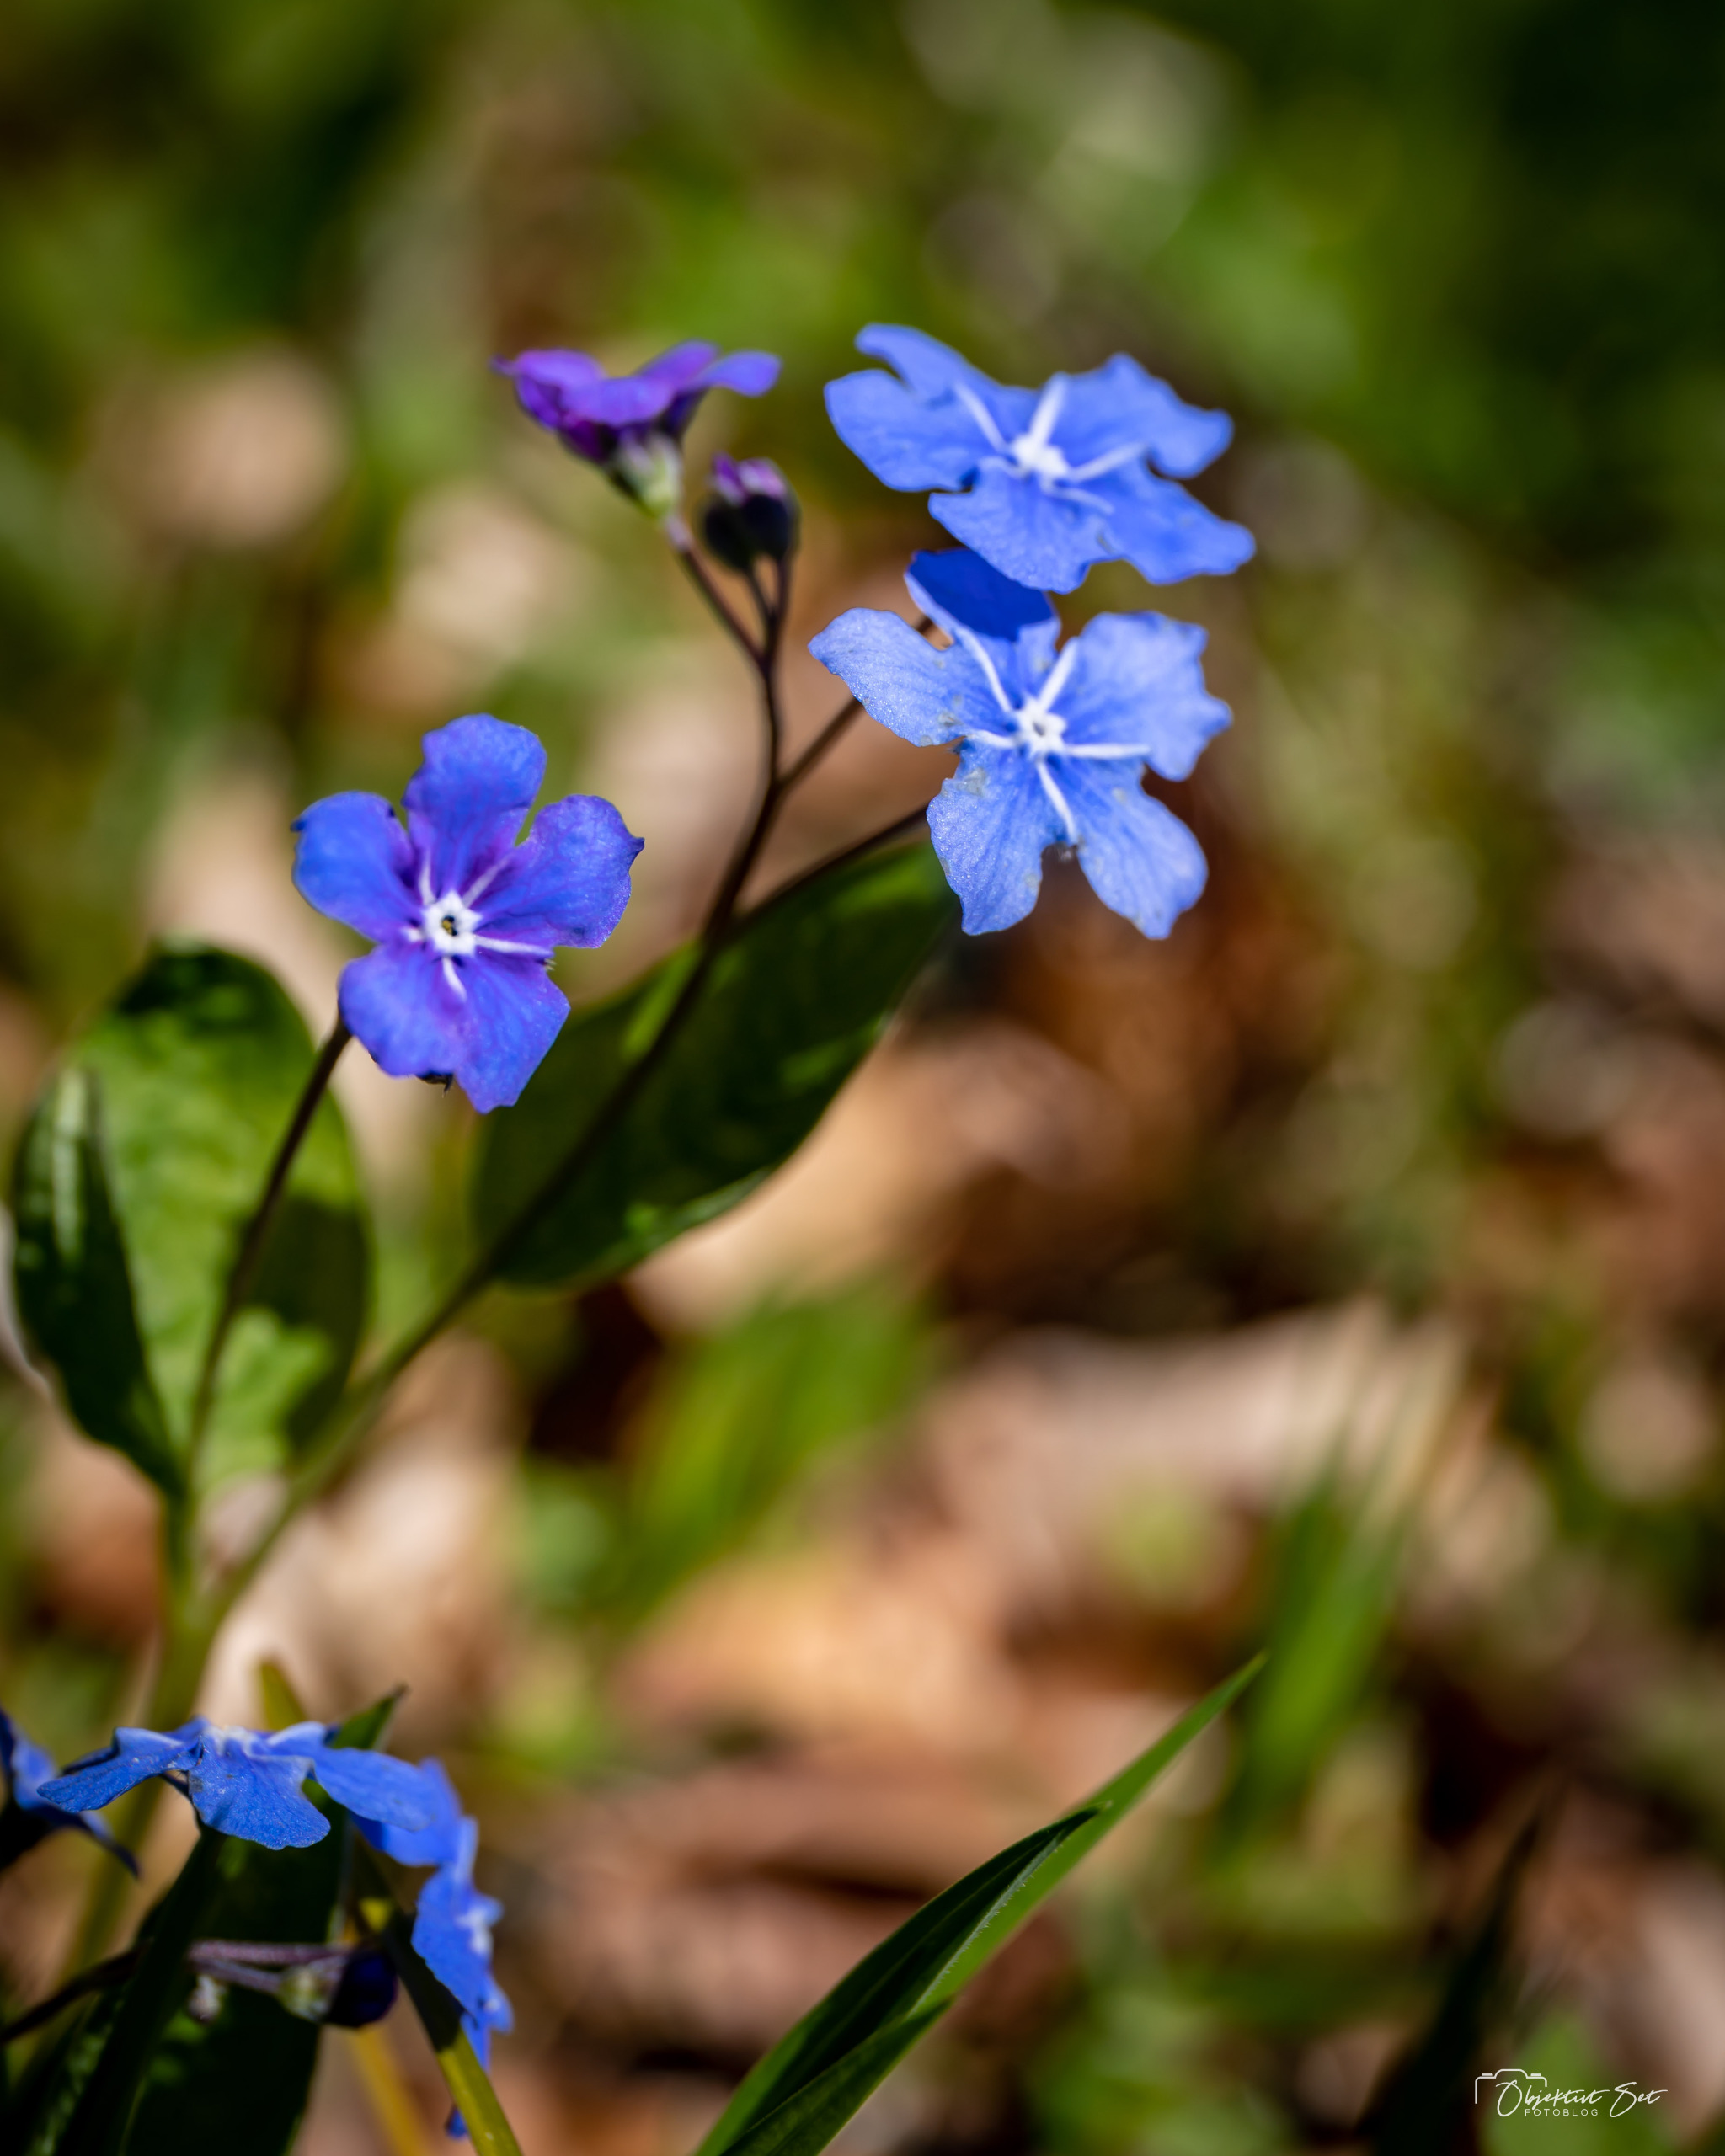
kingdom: Plantae
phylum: Tracheophyta
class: Magnoliopsida
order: Boraginales
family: Boraginaceae
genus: Omphalodes
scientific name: Omphalodes verna
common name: Vår-kærminde
